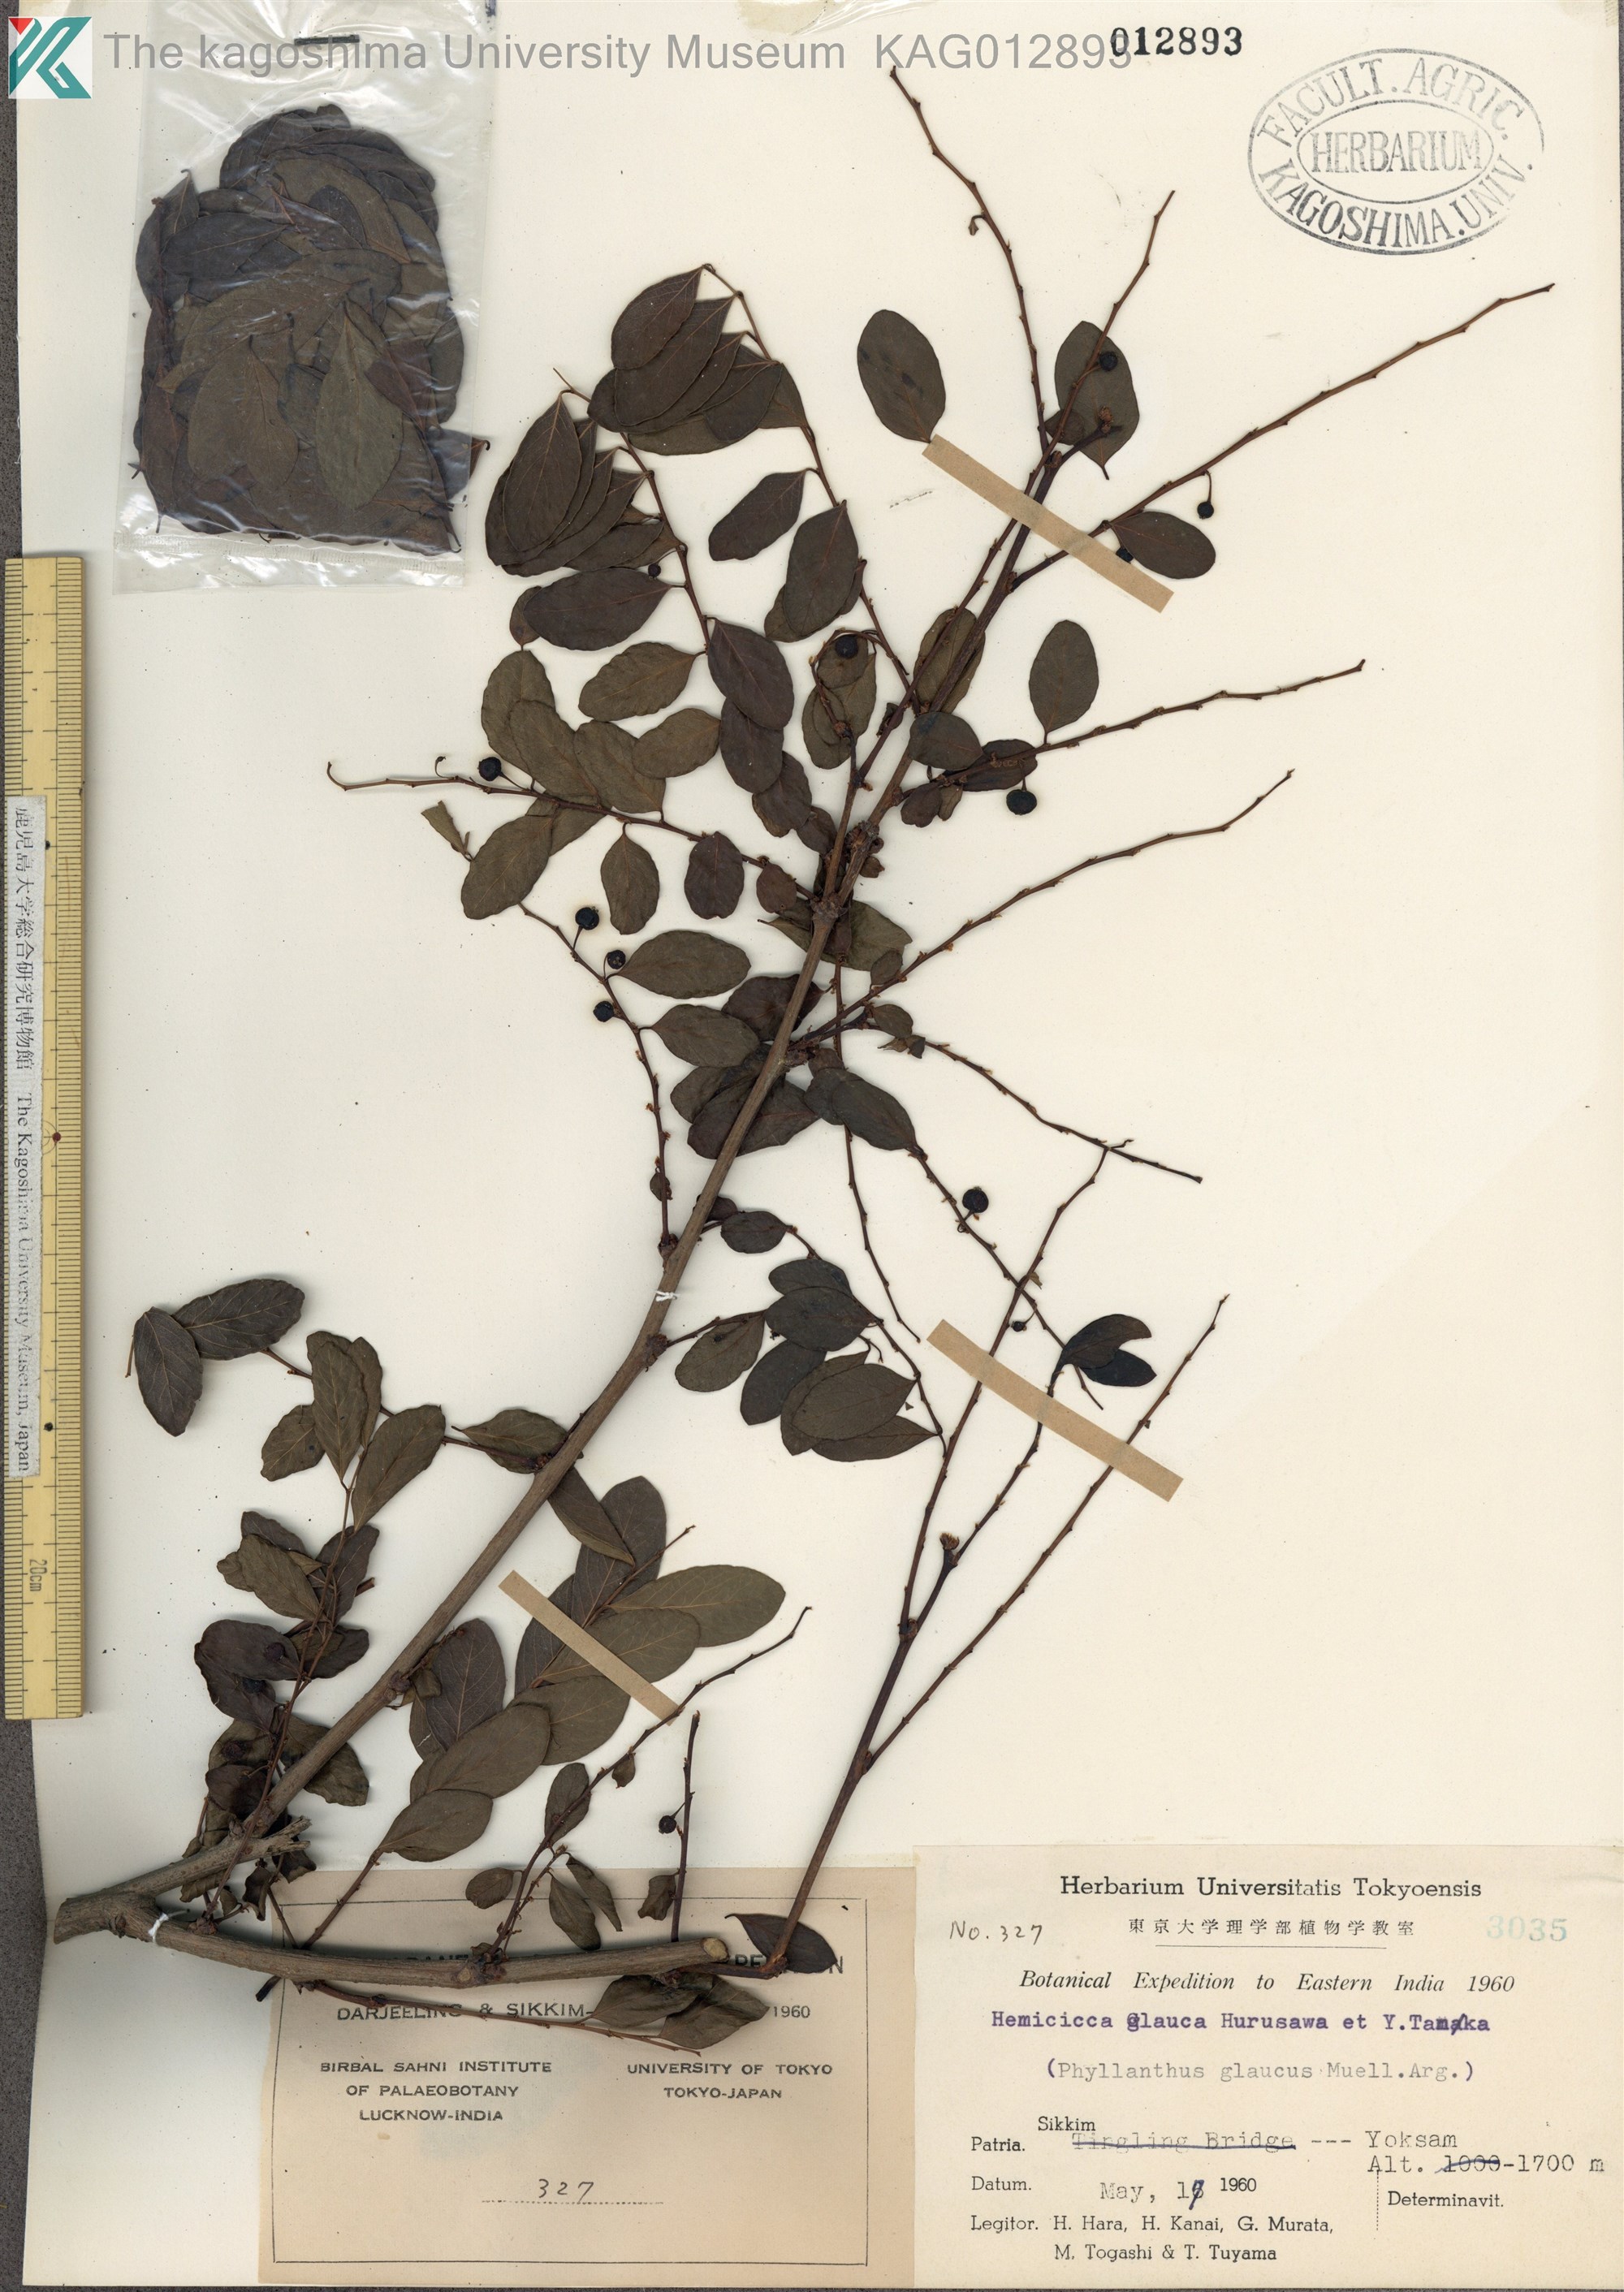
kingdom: Plantae
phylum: Tracheophyta
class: Magnoliopsida
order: Malpighiales
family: Phyllanthaceae
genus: Flueggea
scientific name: Flueggea virosa
